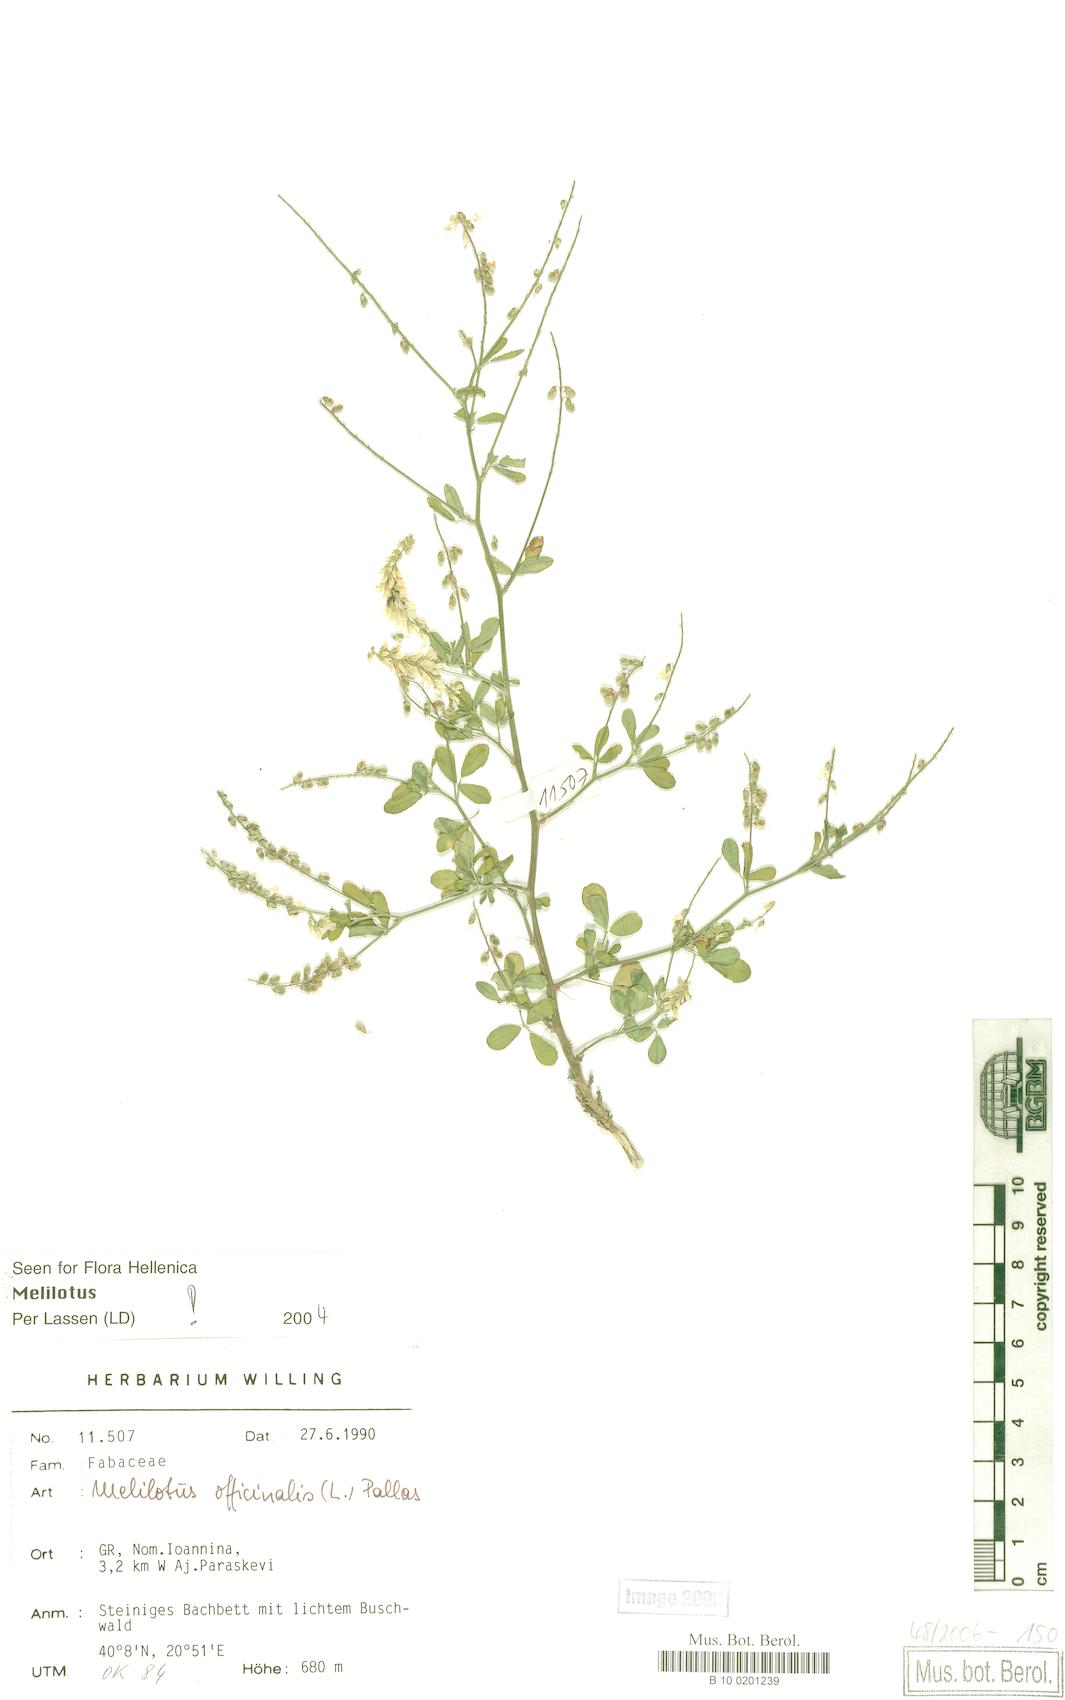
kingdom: Plantae
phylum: Tracheophyta
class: Magnoliopsida
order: Fabales
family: Fabaceae
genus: Melilotus
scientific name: Melilotus officinalis
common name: Sweetclover
